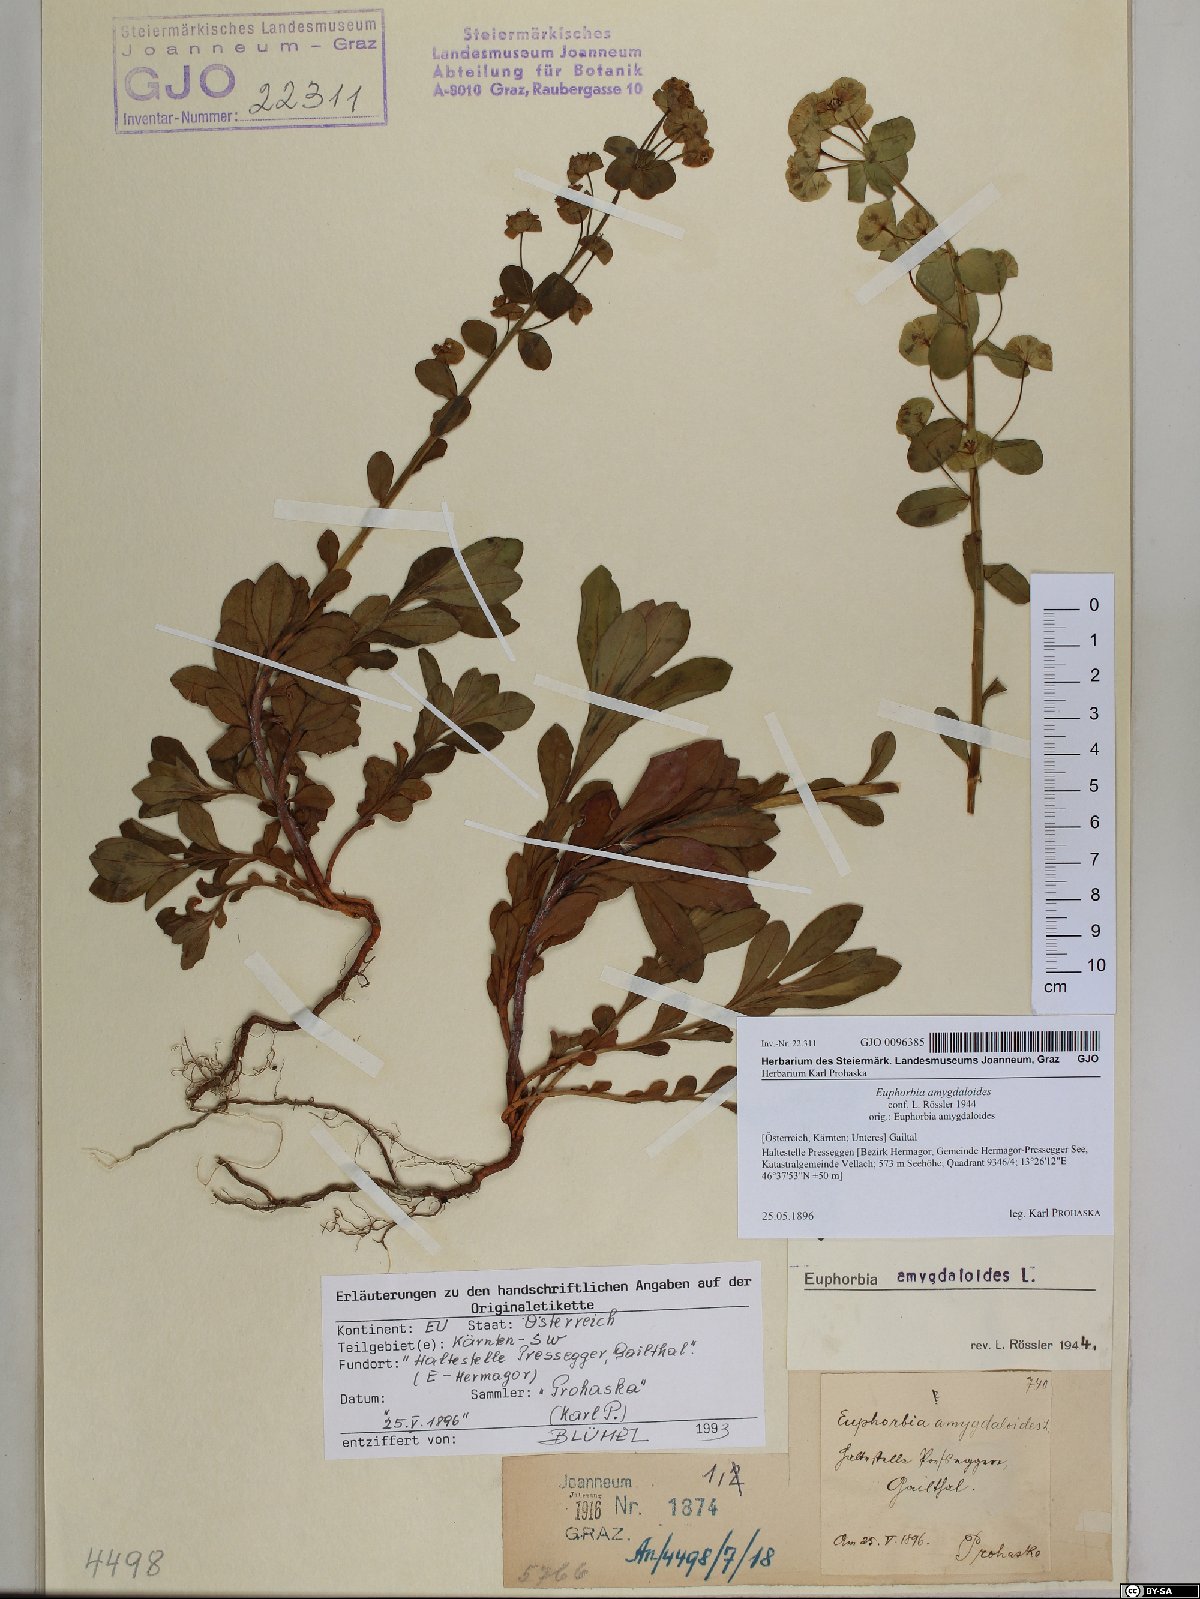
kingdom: Plantae
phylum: Tracheophyta
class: Magnoliopsida
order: Malpighiales
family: Euphorbiaceae
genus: Euphorbia
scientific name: Euphorbia amygdaloides
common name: Wood spurge
